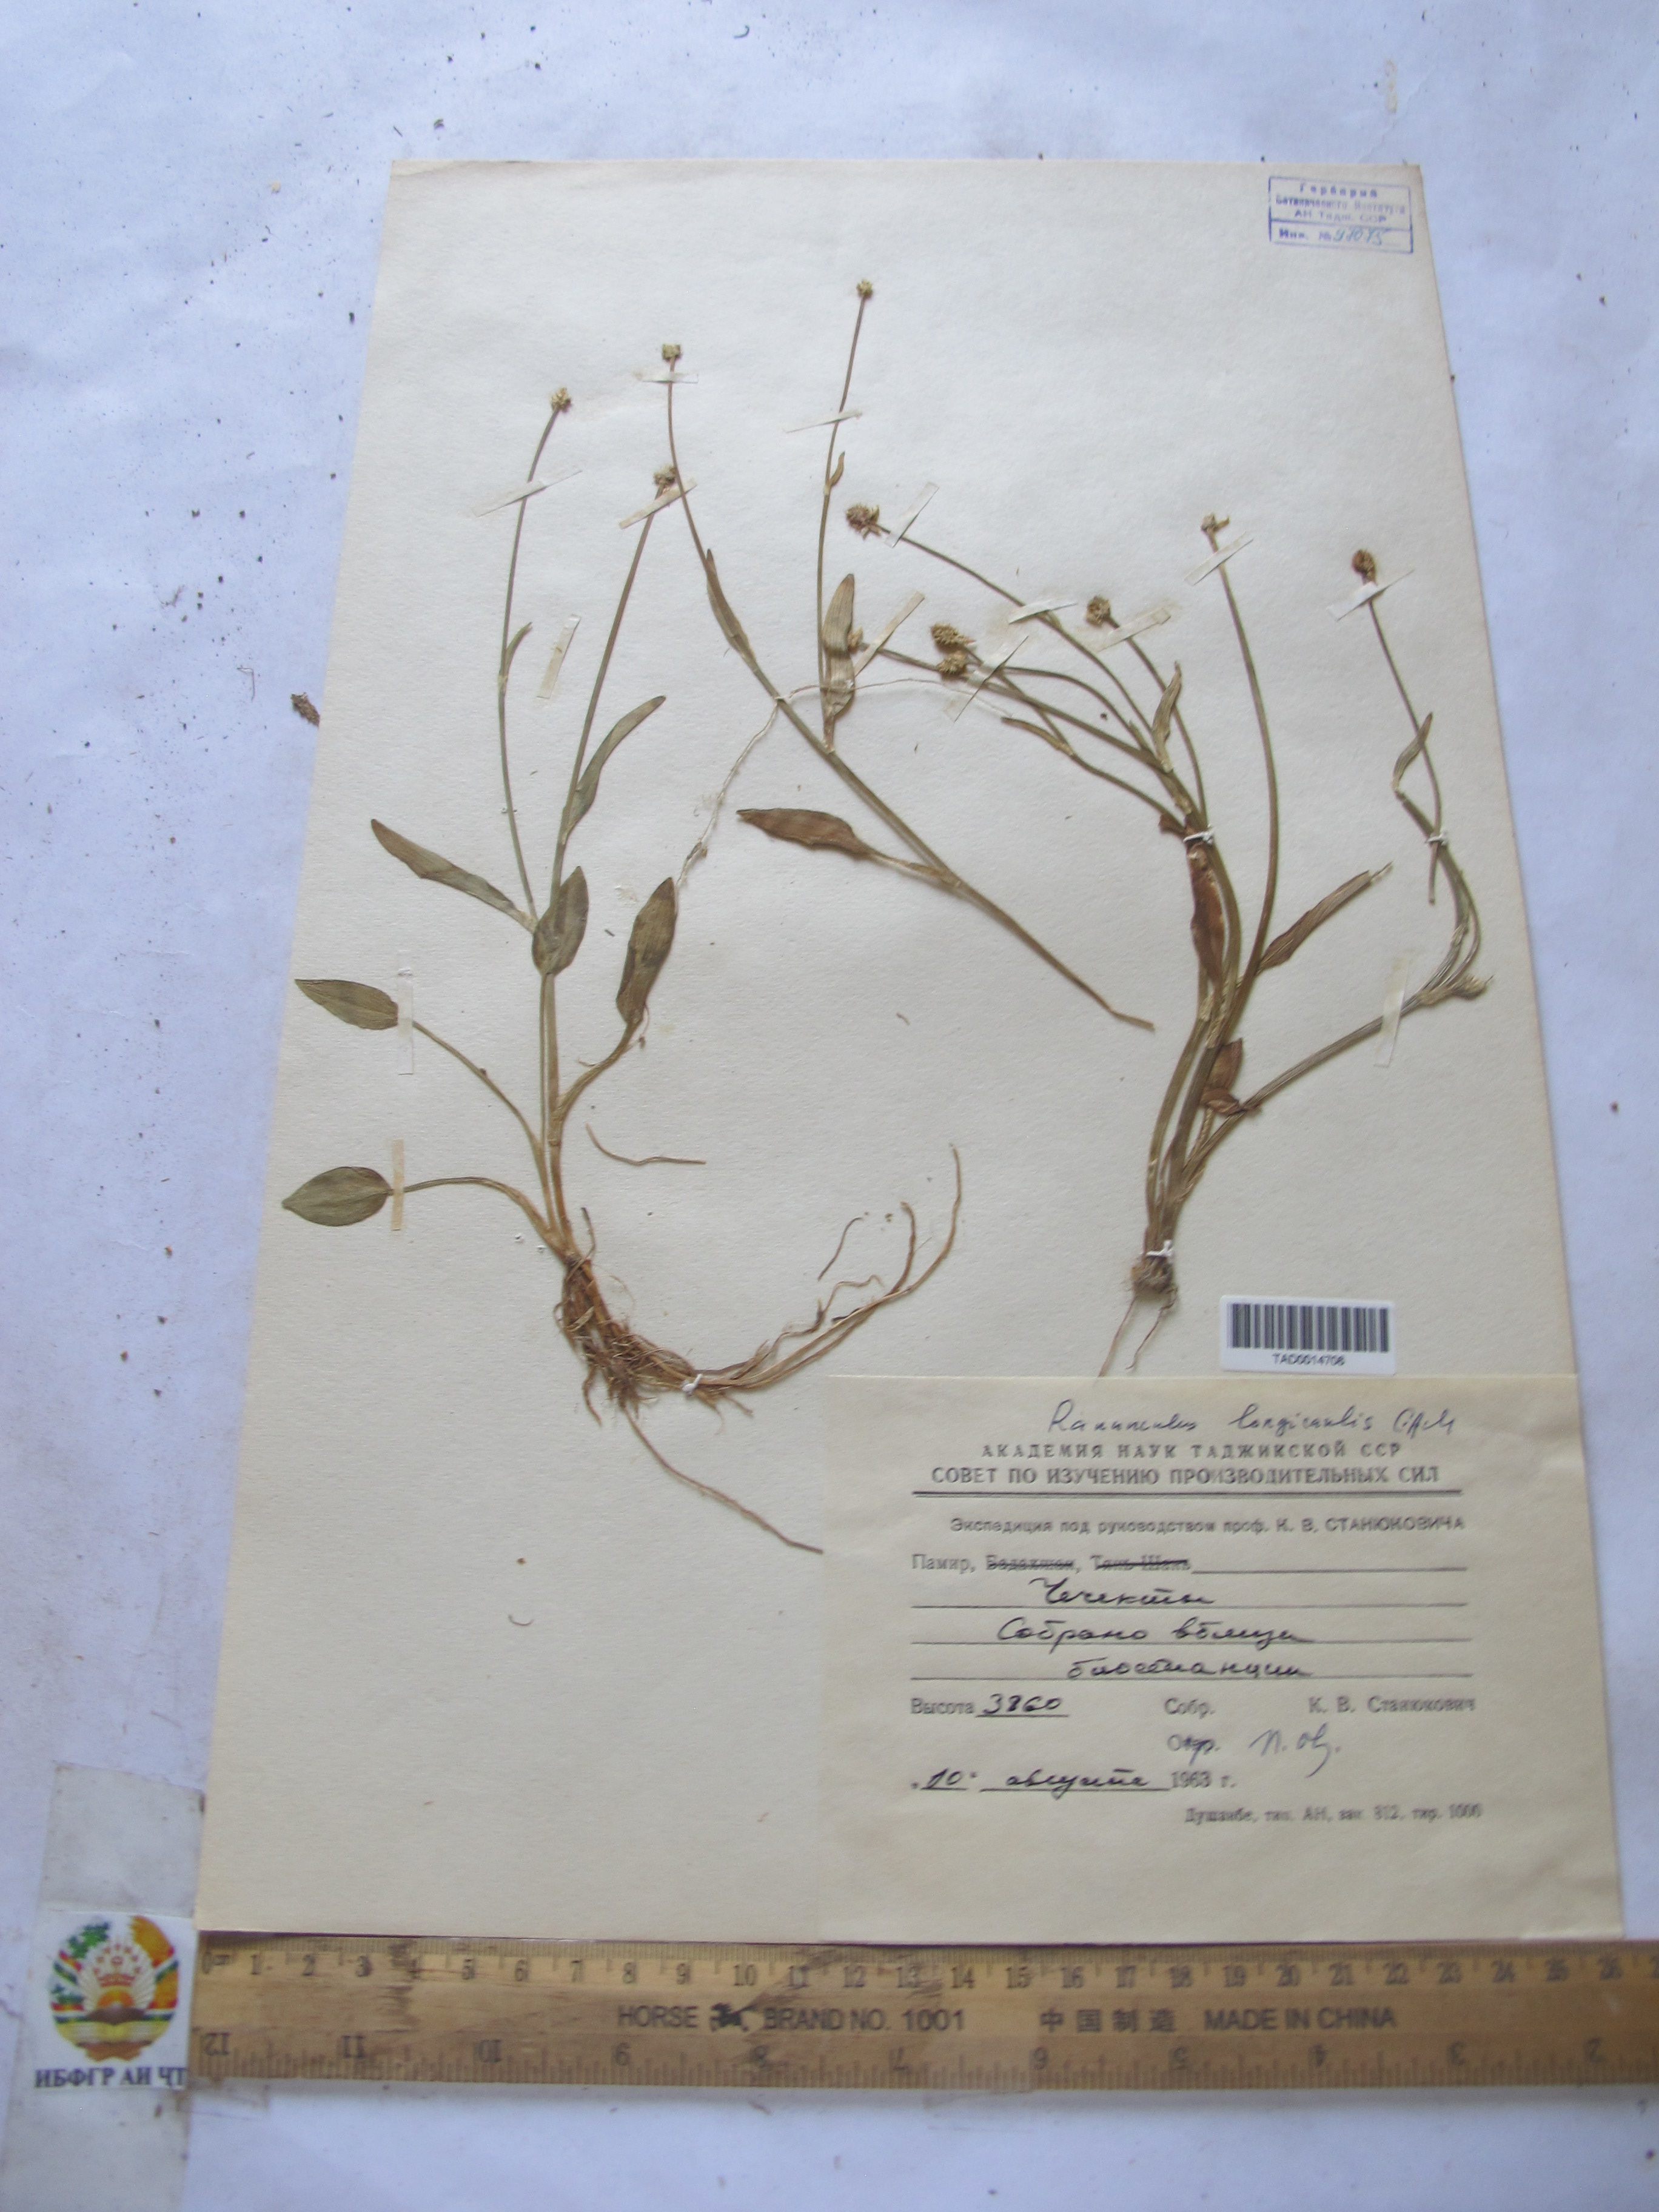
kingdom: Plantae
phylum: Tracheophyta
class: Magnoliopsida
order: Ranunculales
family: Ranunculaceae
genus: Ranunculus
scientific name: Ranunculus longicaulis
